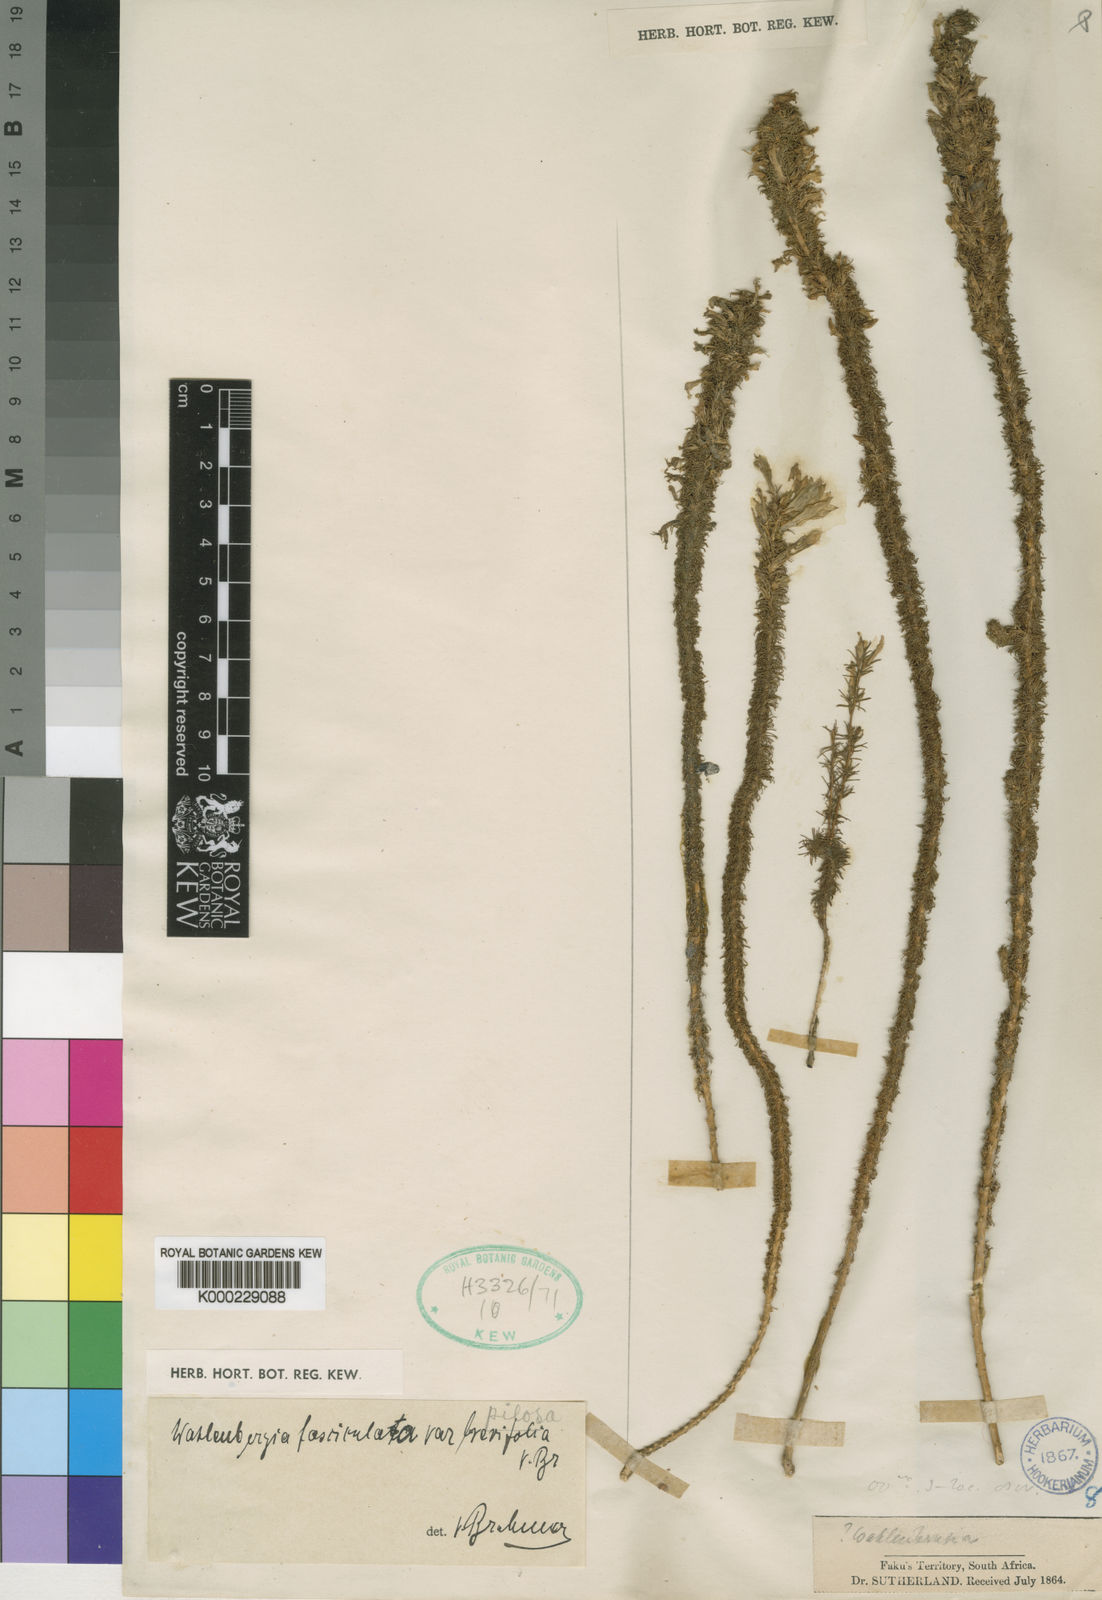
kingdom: Plantae
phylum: Tracheophyta
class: Magnoliopsida
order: Asterales
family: Campanulaceae
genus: Wahlenbergia
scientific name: Wahlenbergia fasciculata
